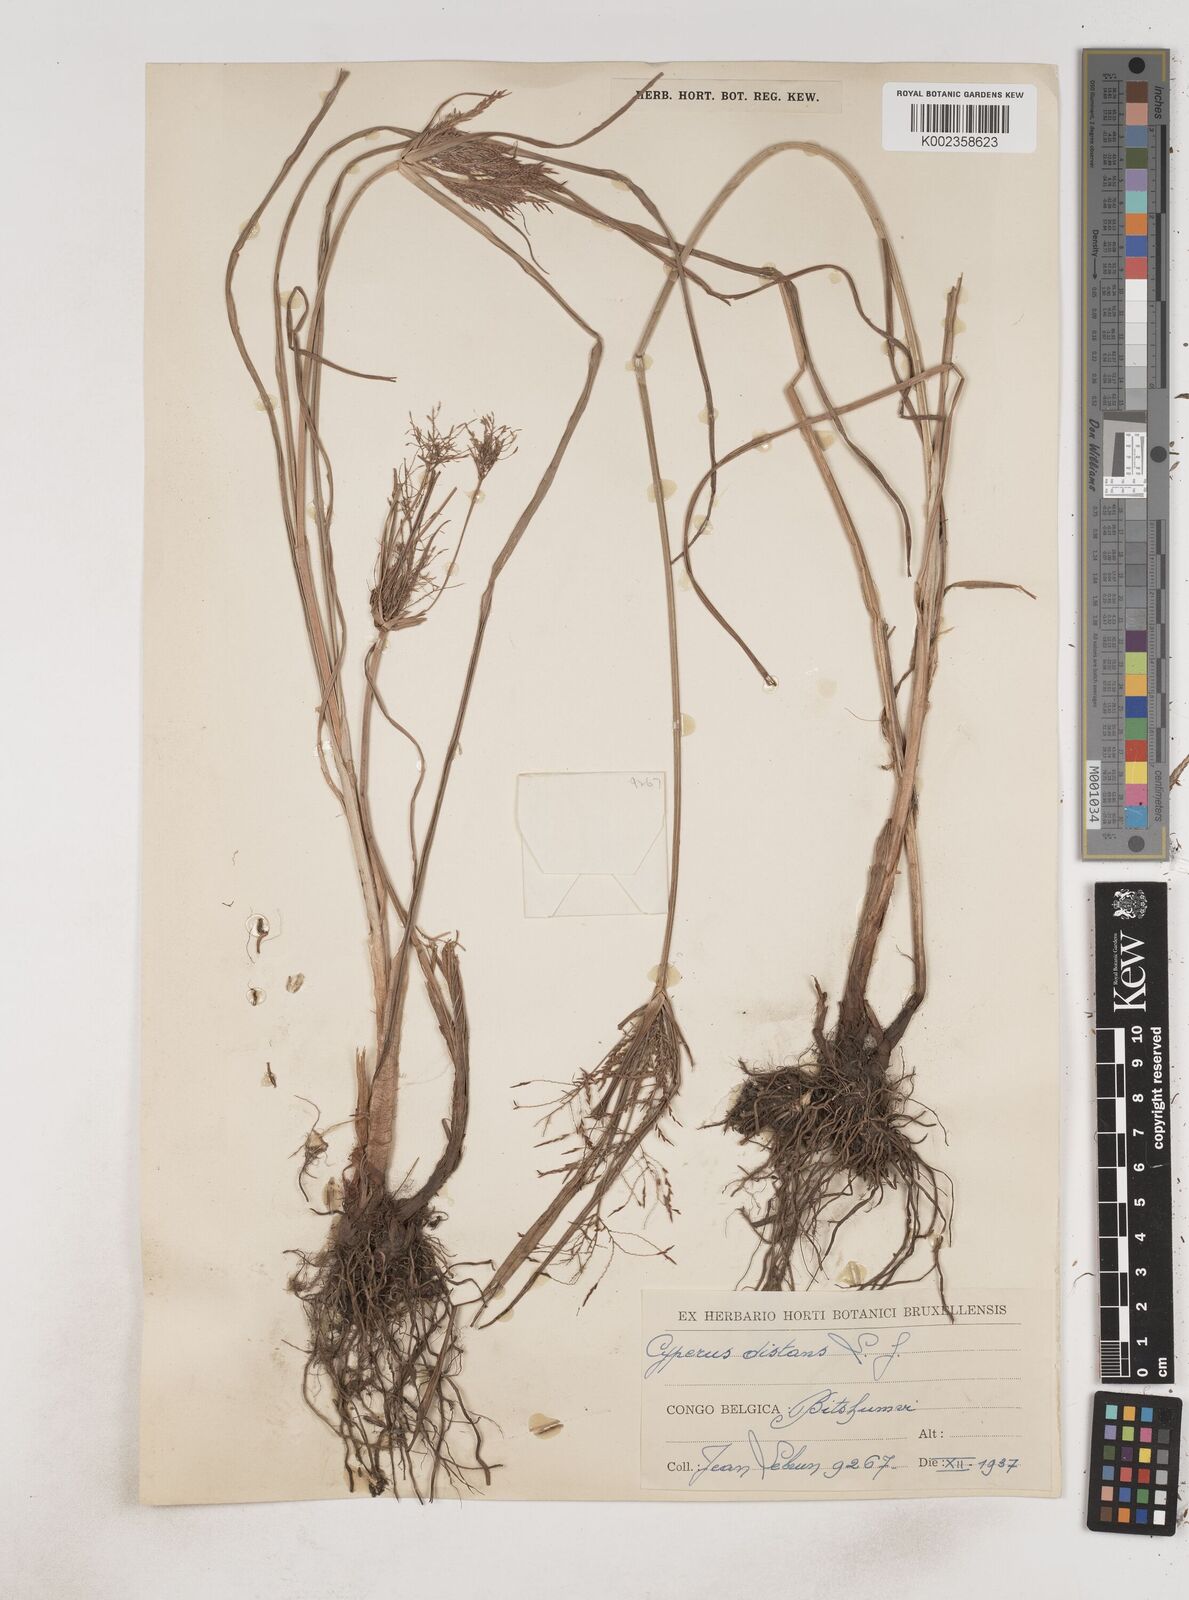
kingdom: Plantae
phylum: Tracheophyta
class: Liliopsida
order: Poales
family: Cyperaceae
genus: Cyperus
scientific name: Cyperus distans
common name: Slender cyperus
